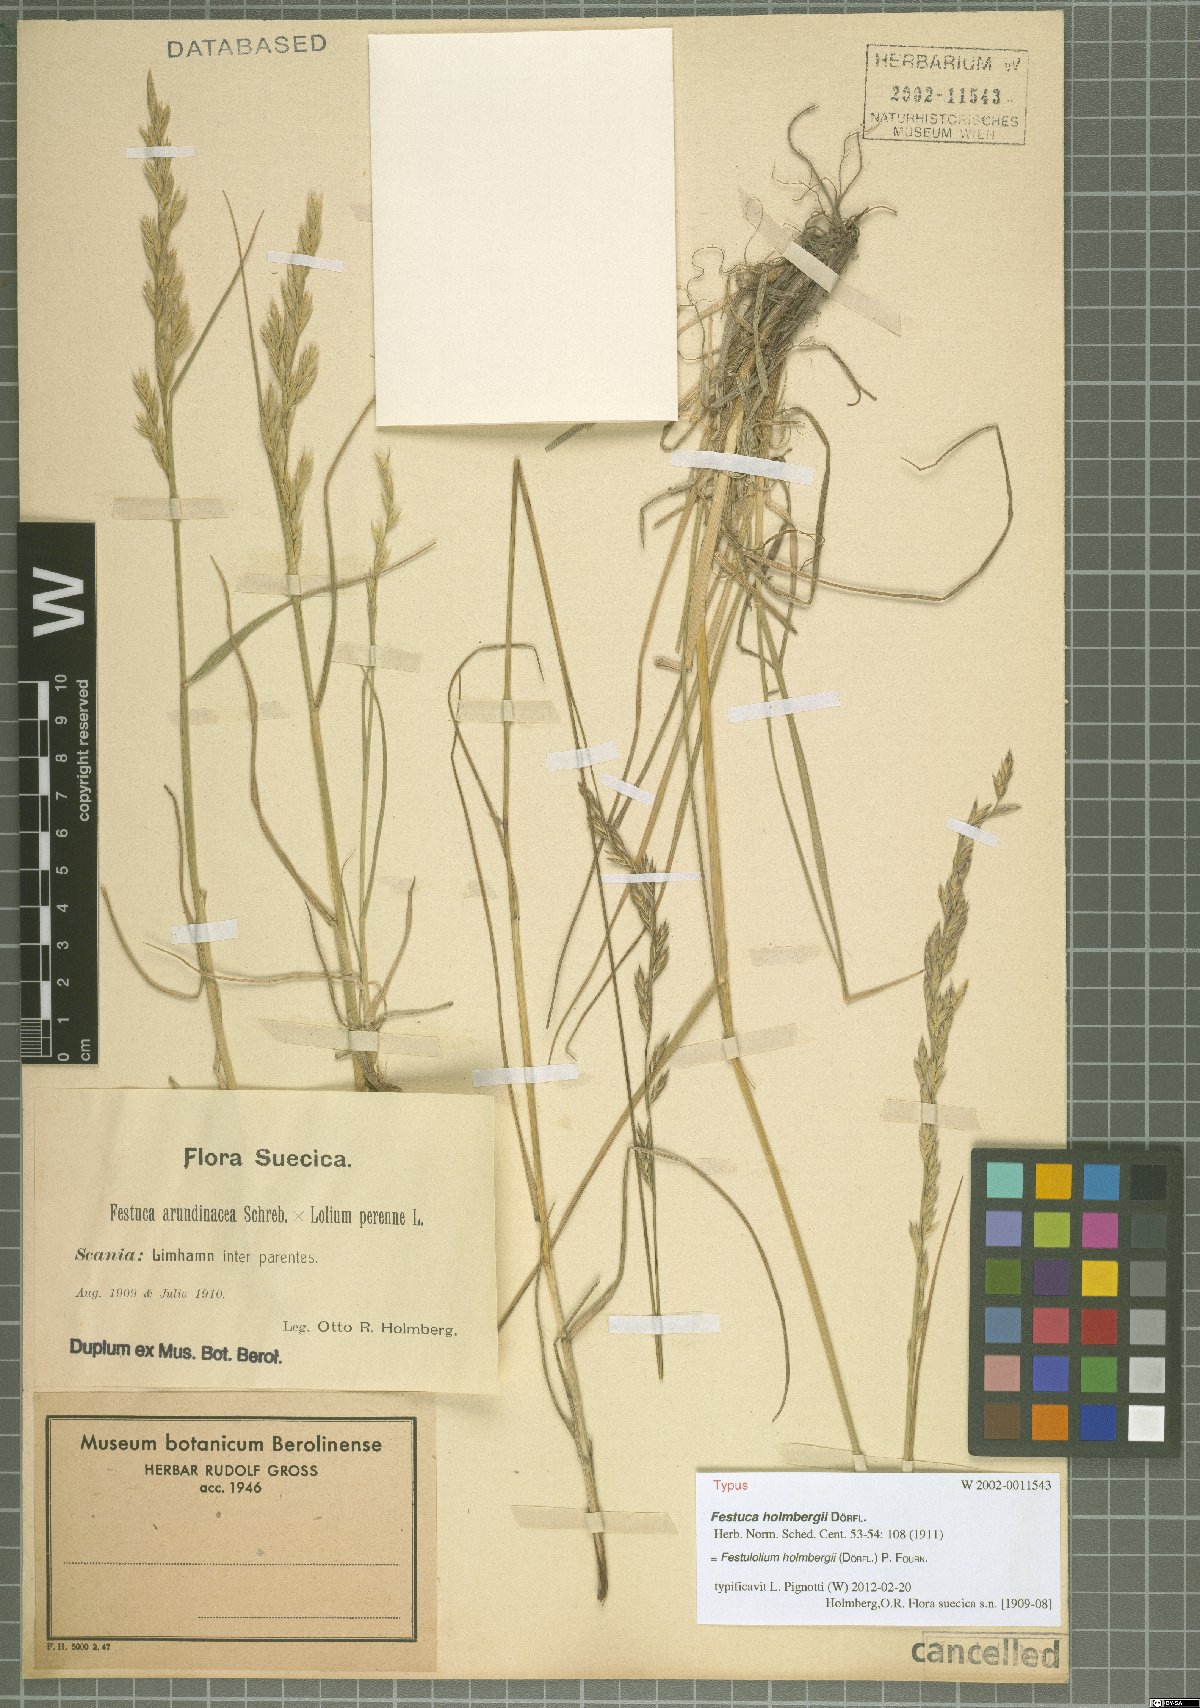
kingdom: Plantae
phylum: Tracheophyta
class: Liliopsida
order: Poales
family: Poaceae
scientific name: Poaceae
